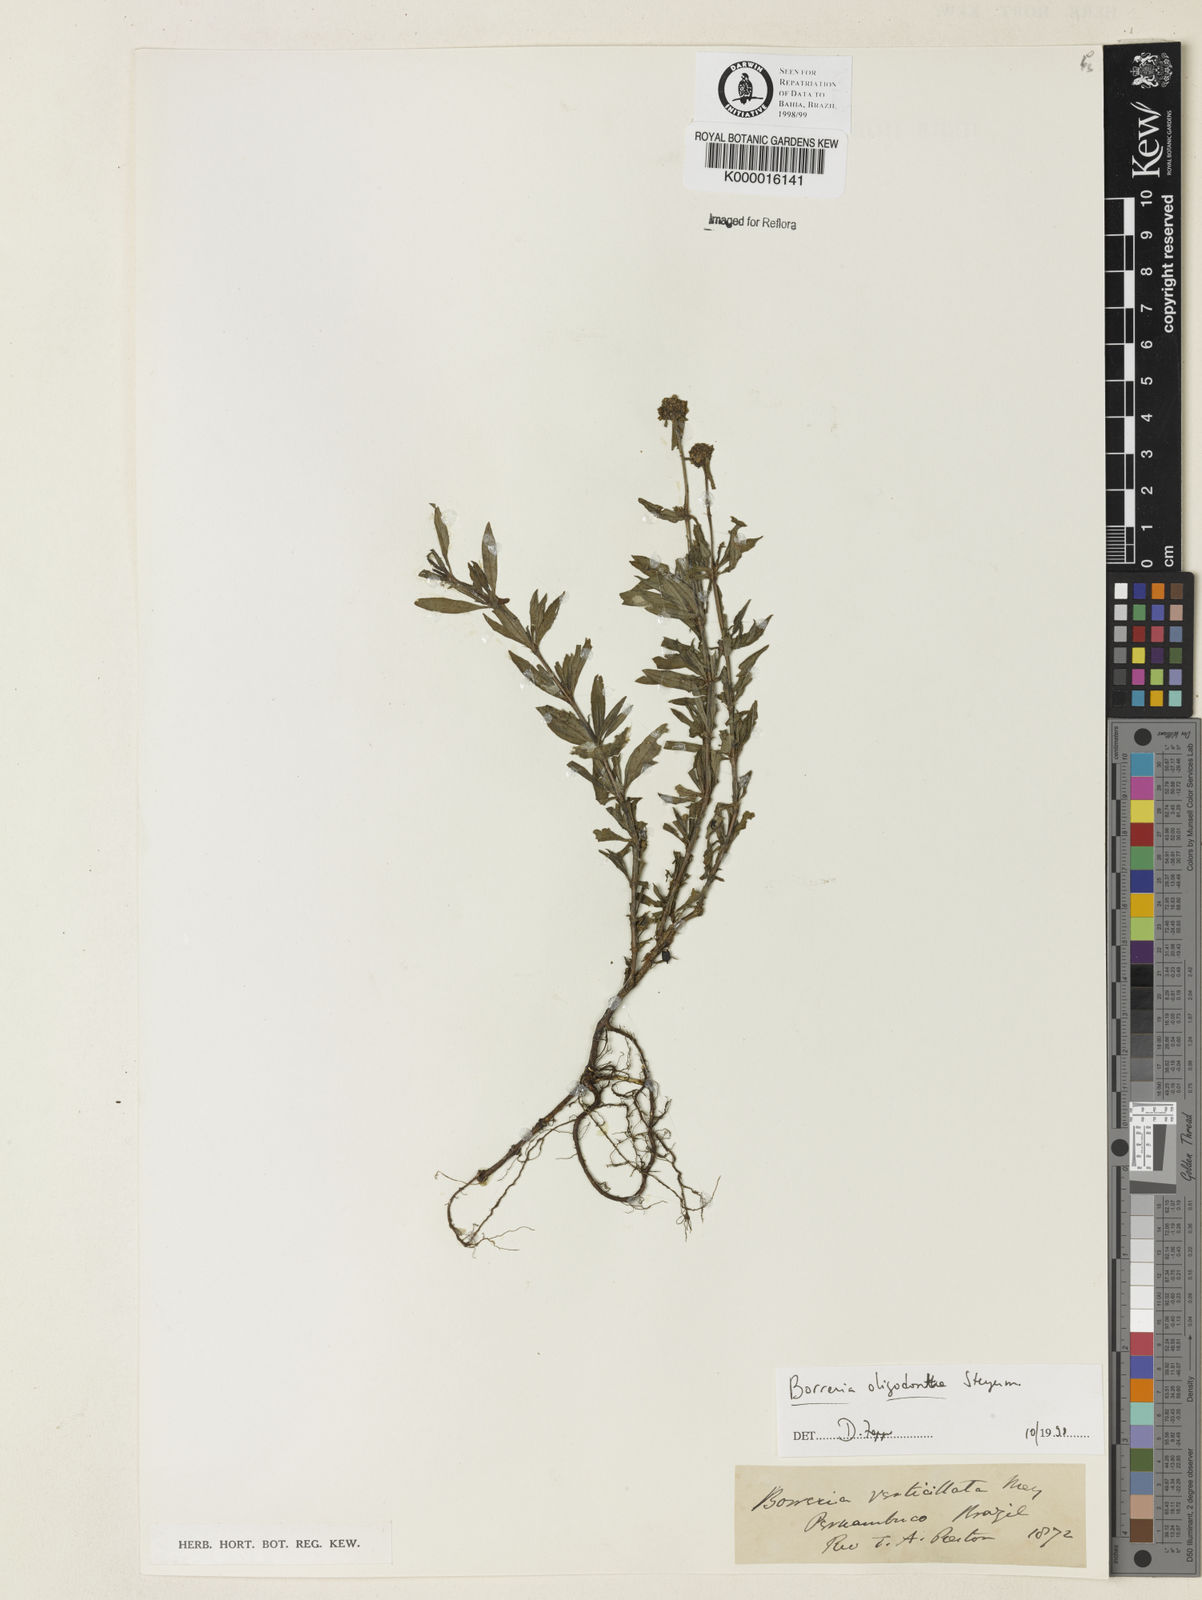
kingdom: Plantae
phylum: Tracheophyta
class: Magnoliopsida
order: Gentianales
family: Rubiaceae
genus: Spermacoce
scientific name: Spermacoce verticillata
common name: Shrubby false buttonweed
